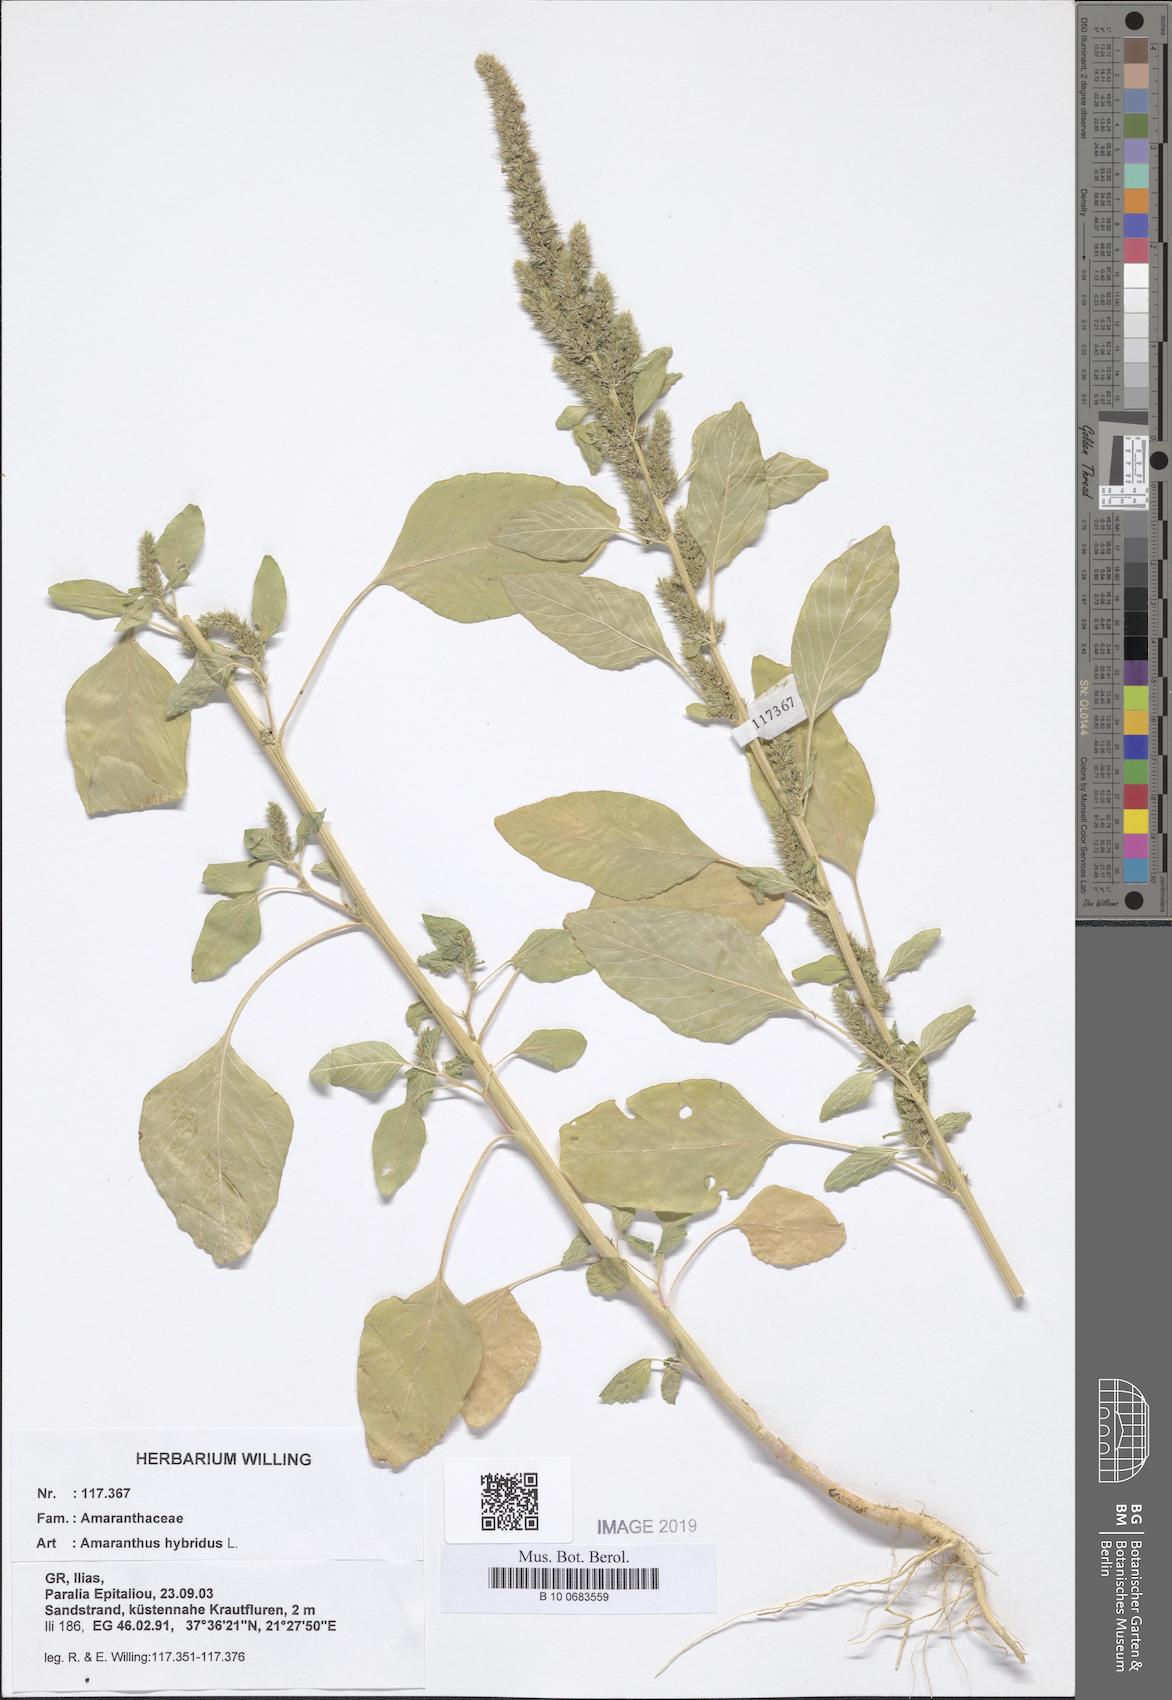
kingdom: Plantae
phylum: Tracheophyta
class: Magnoliopsida
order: Caryophyllales
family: Amaranthaceae
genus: Amaranthus
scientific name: Amaranthus hybridus
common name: Green amaranth
